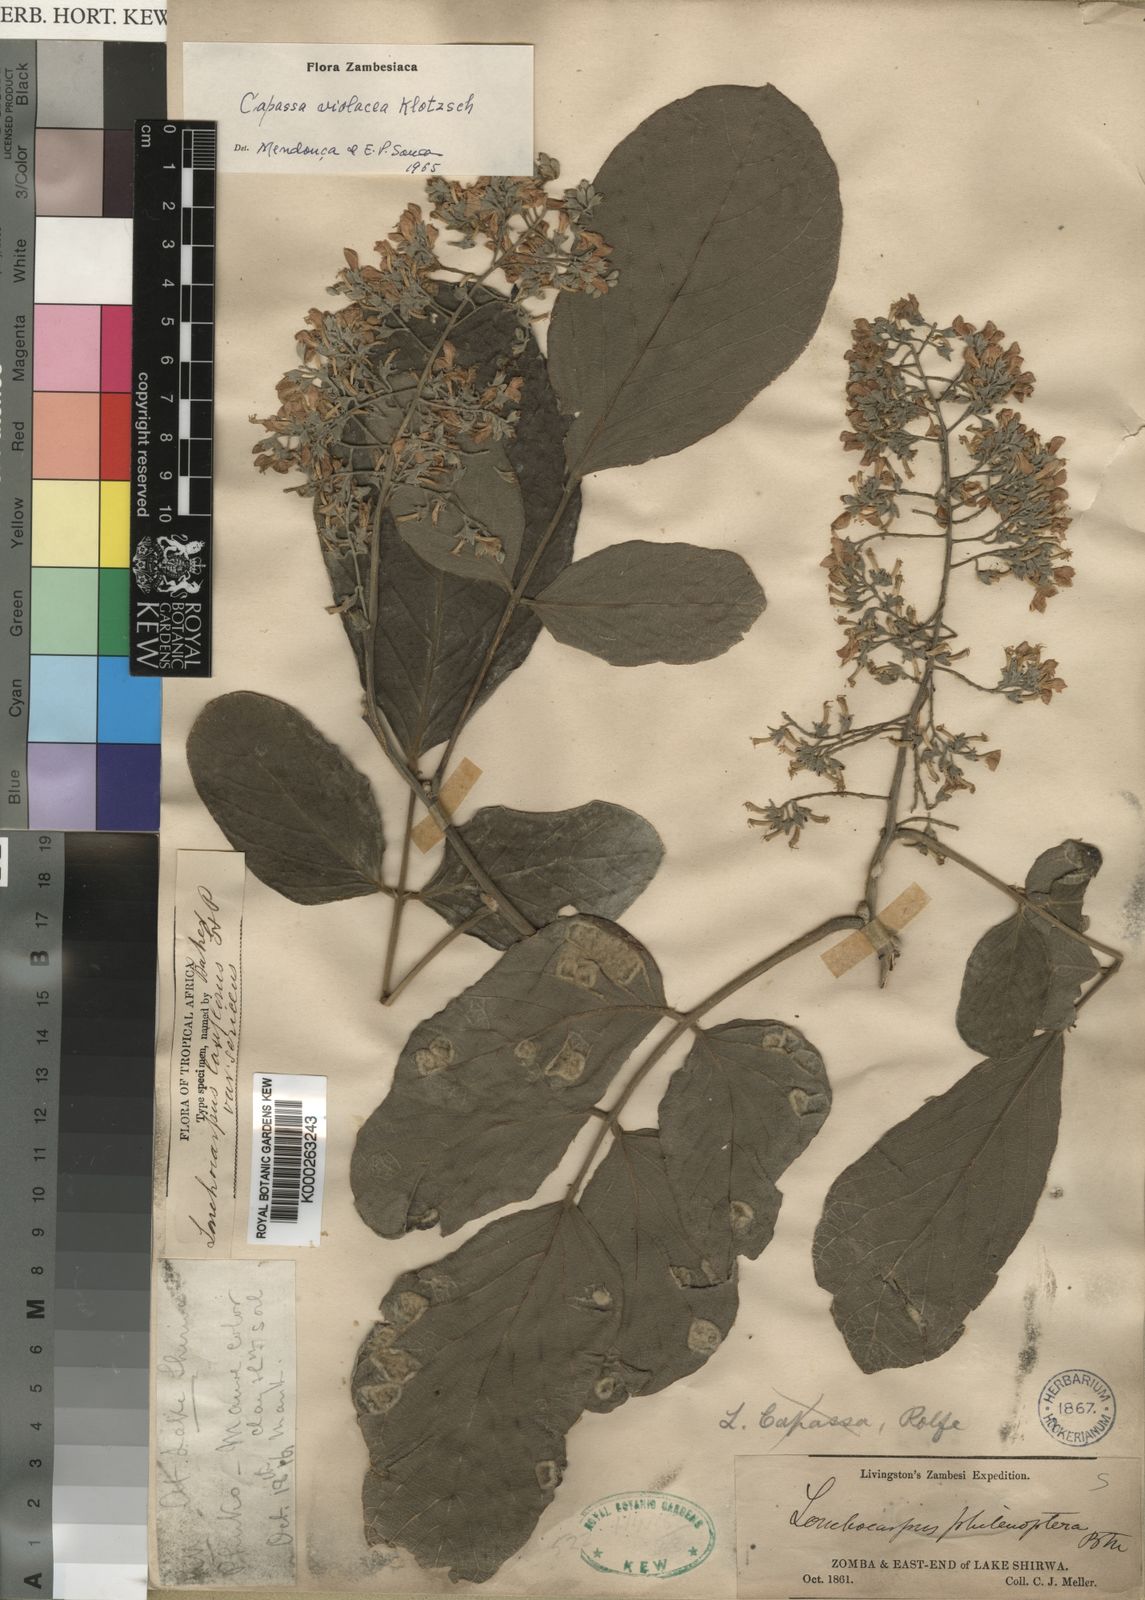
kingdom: Plantae
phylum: Tracheophyta
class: Magnoliopsida
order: Fabales
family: Fabaceae
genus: Philenoptera
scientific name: Philenoptera violacea
